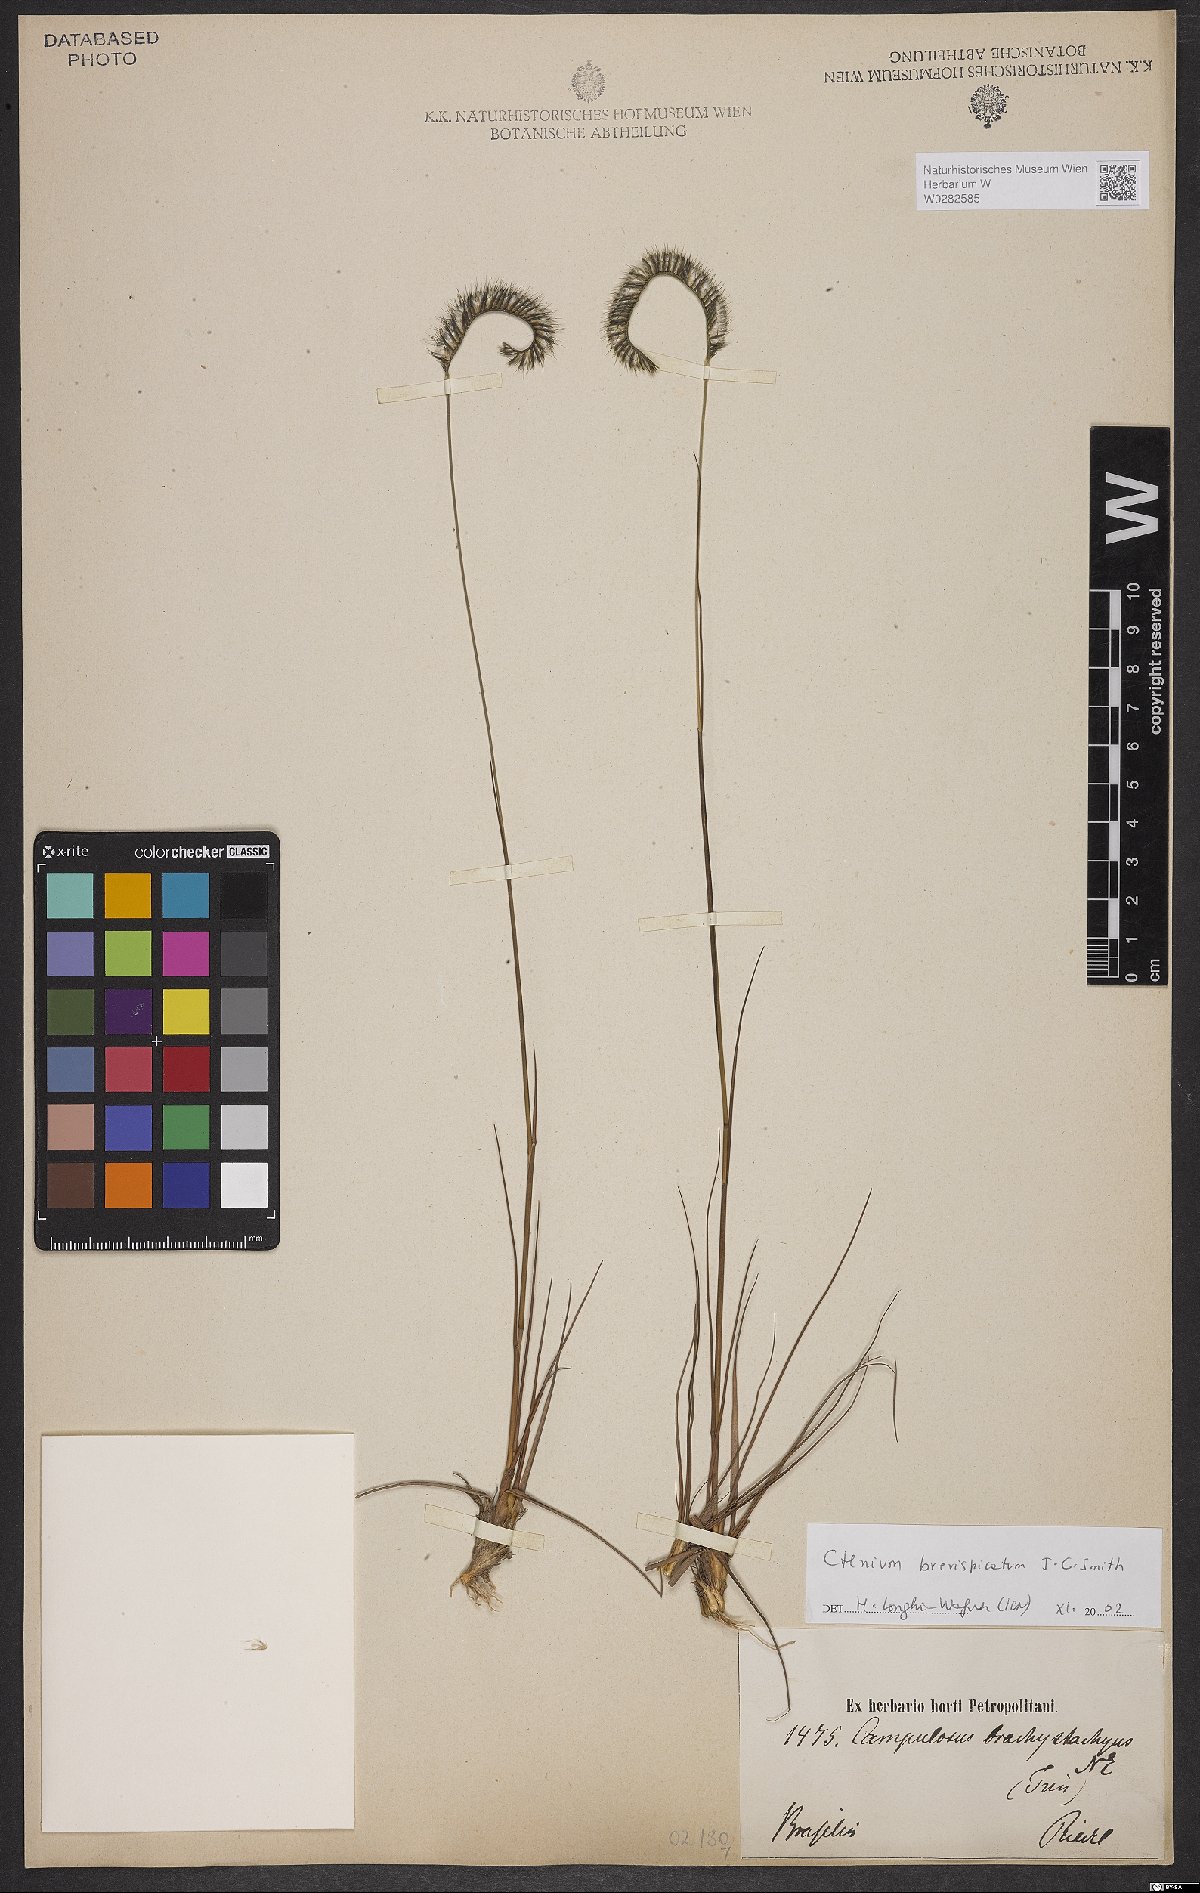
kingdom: Plantae
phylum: Tracheophyta
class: Liliopsida
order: Poales
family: Poaceae
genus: Ctenium
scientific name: Ctenium brevispicatum
